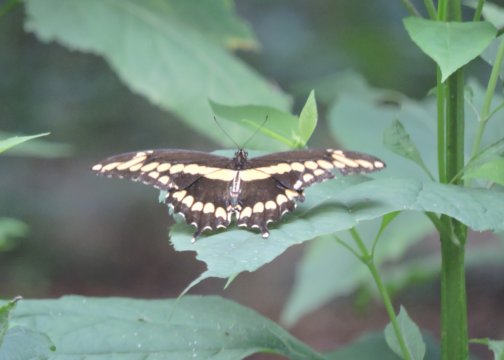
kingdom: Animalia
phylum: Arthropoda
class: Insecta
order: Lepidoptera
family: Papilionidae
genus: Papilio
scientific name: Papilio cresphontes
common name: Eastern Giant Swallowtail
